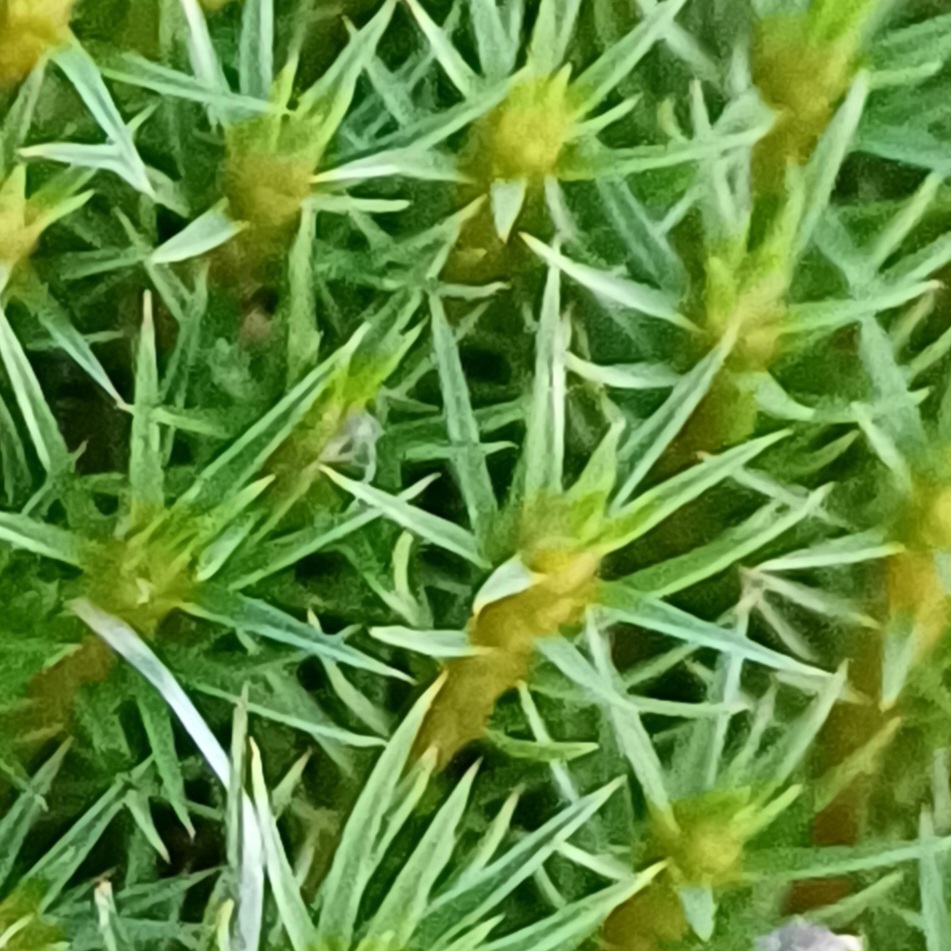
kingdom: Plantae
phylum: Bryophyta
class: Polytrichopsida
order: Polytrichales
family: Polytrichaceae
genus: Polytrichum
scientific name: Polytrichum juniperinum
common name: Ene-jomfruhår
